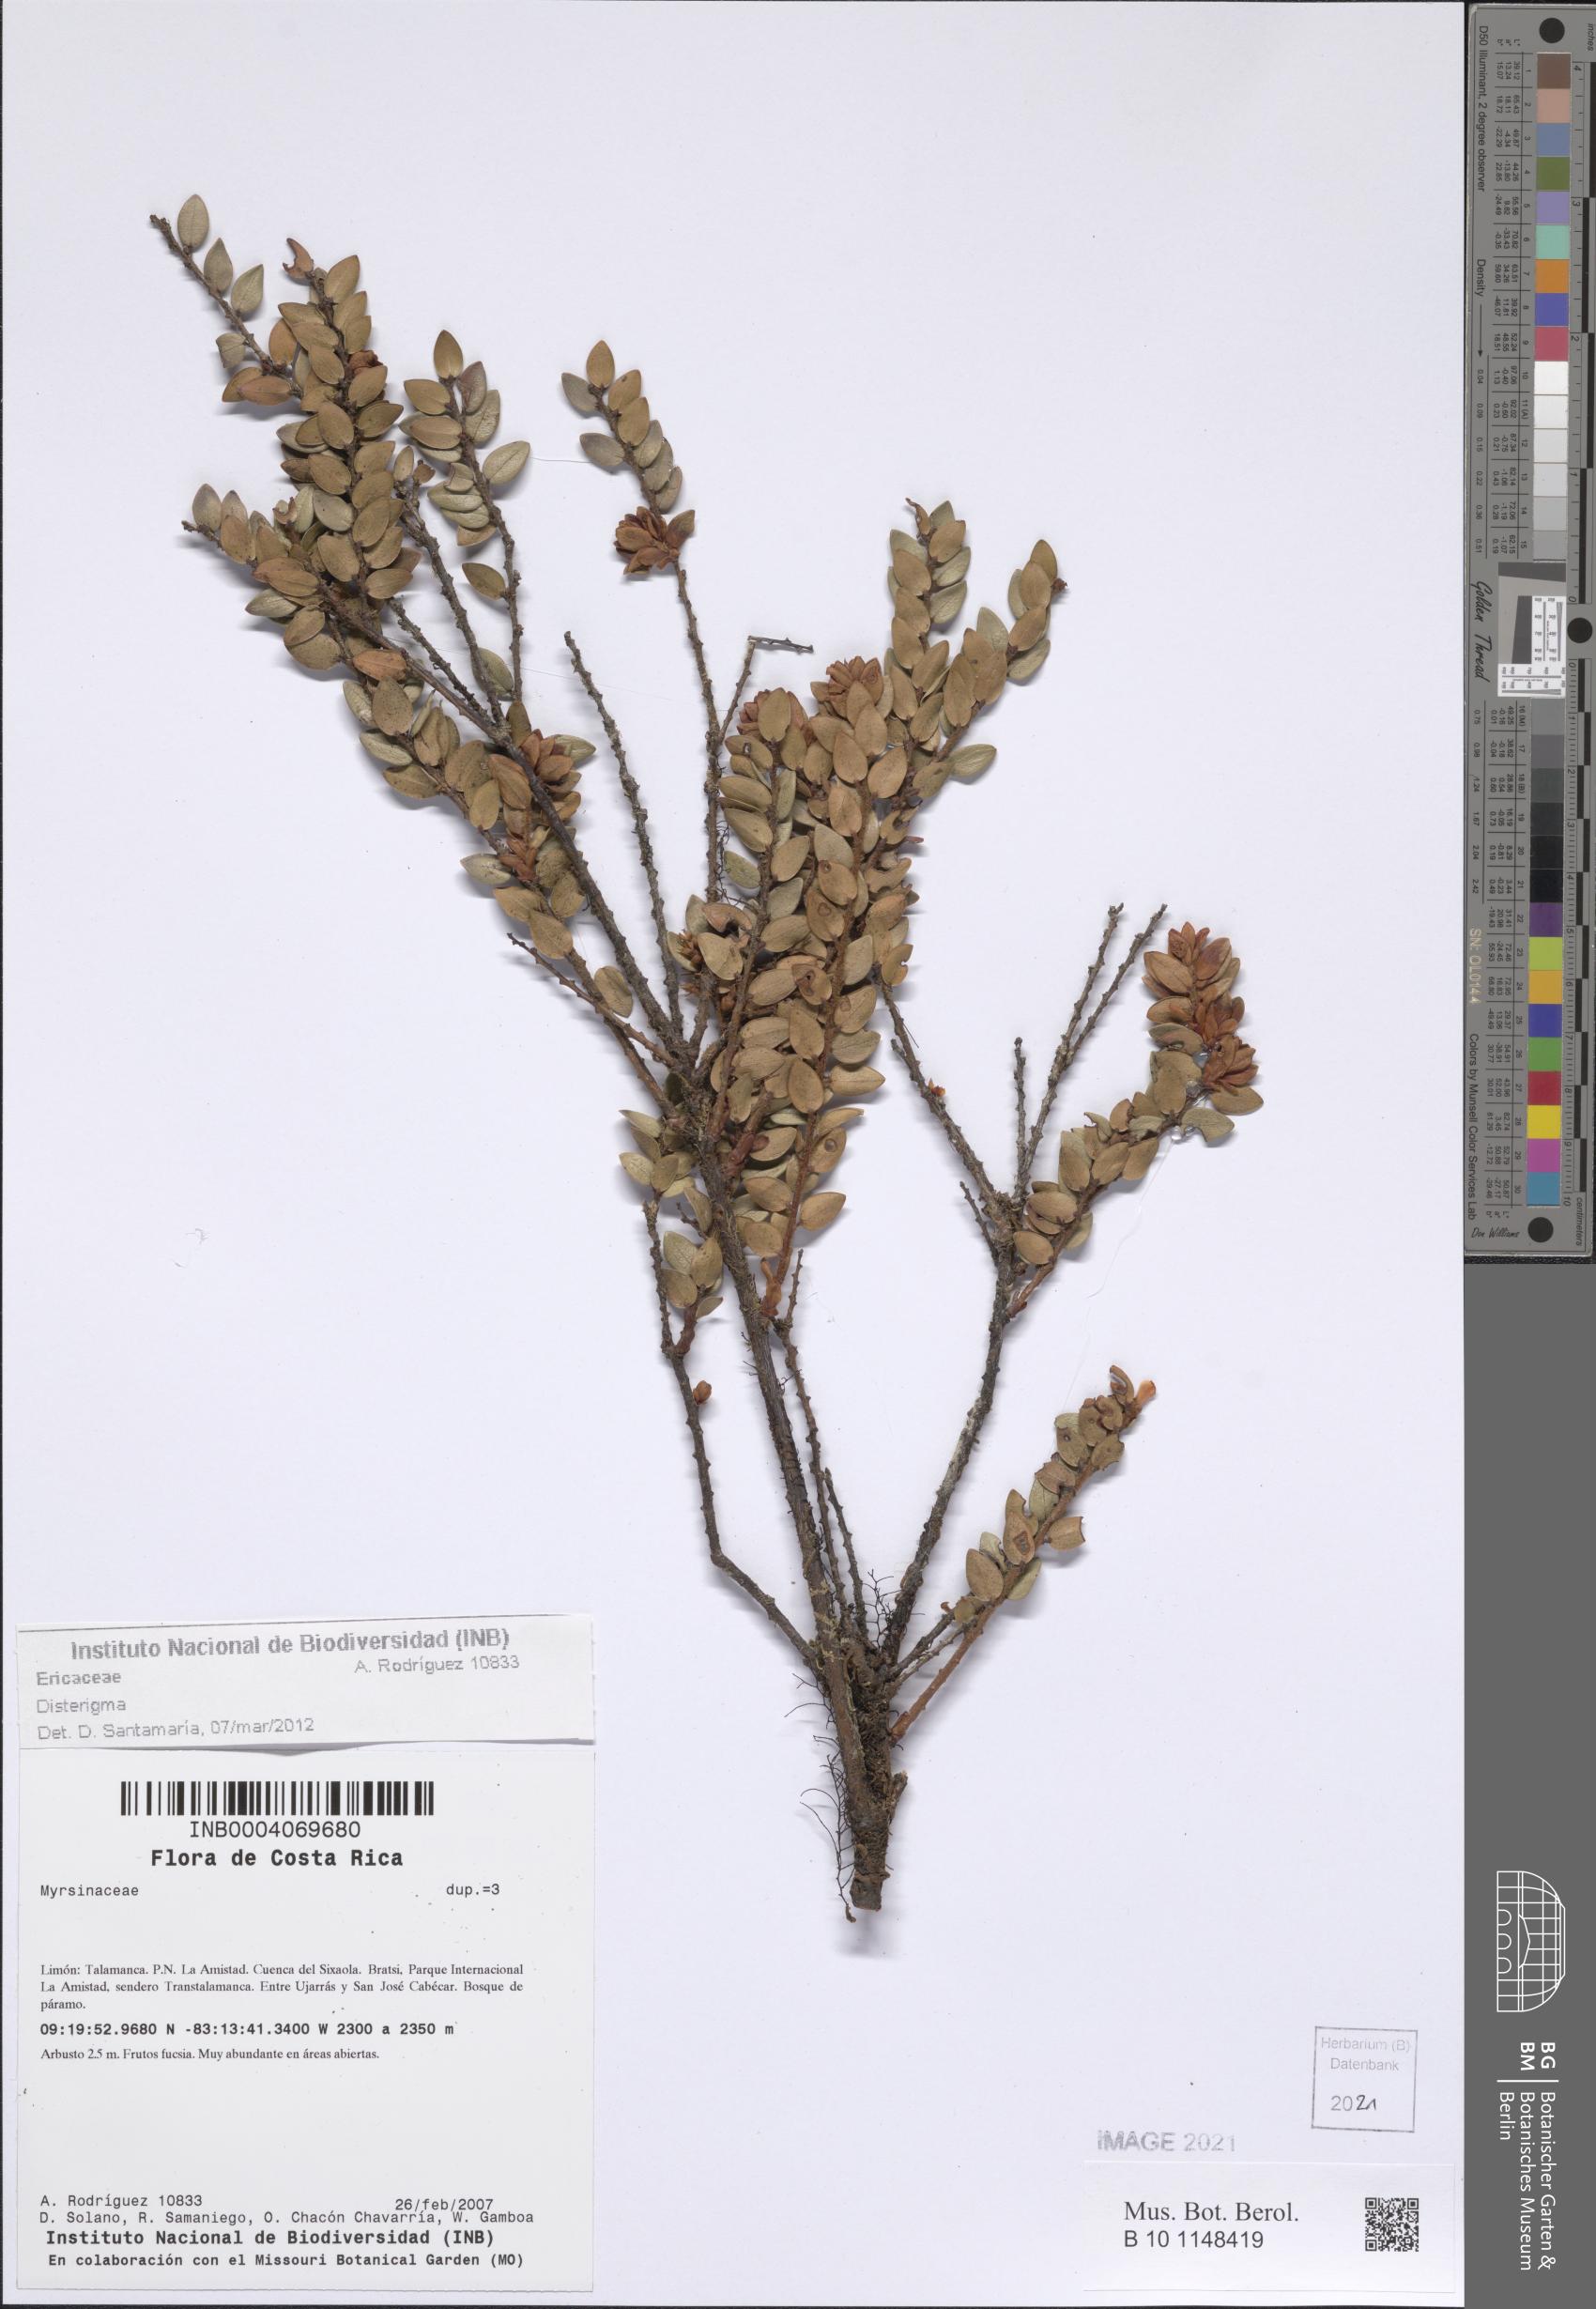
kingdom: Plantae
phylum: Tracheophyta
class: Magnoliopsida
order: Ericales
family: Ericaceae
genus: Disterigma
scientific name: Disterigma
